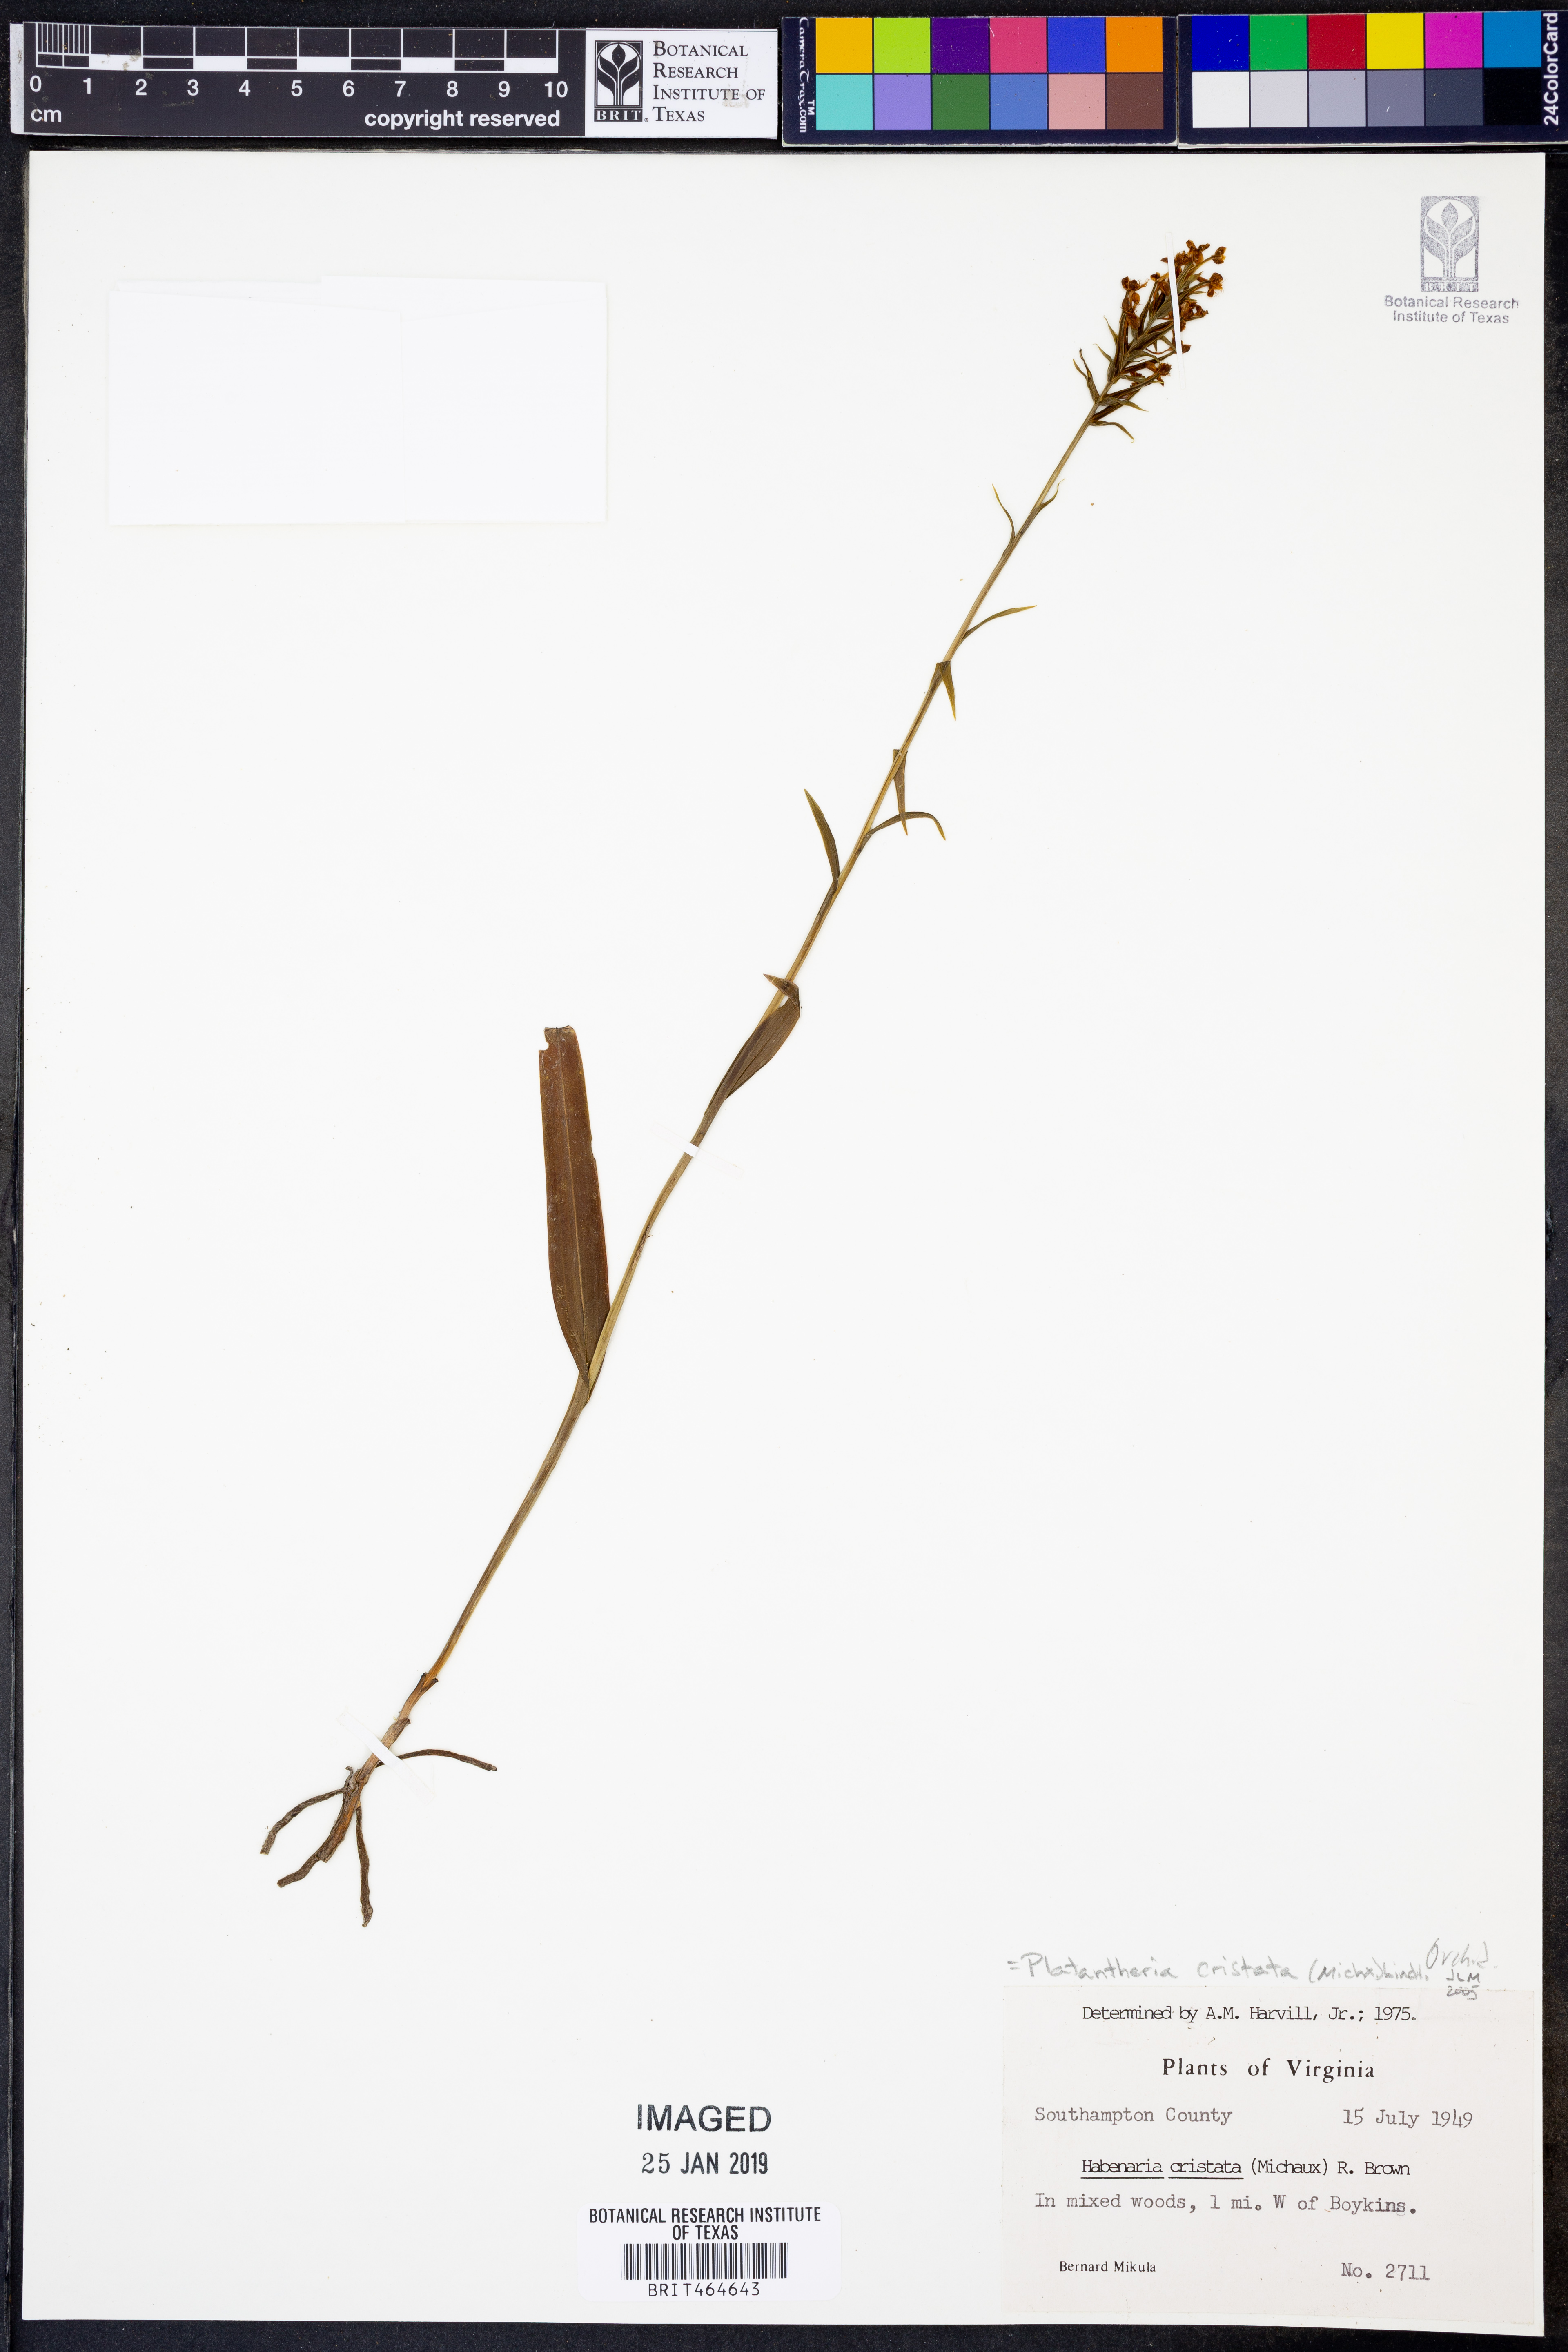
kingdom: Plantae
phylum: Tracheophyta
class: Liliopsida
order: Asparagales
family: Orchidaceae
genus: Platanthera
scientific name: Platanthera cristata
